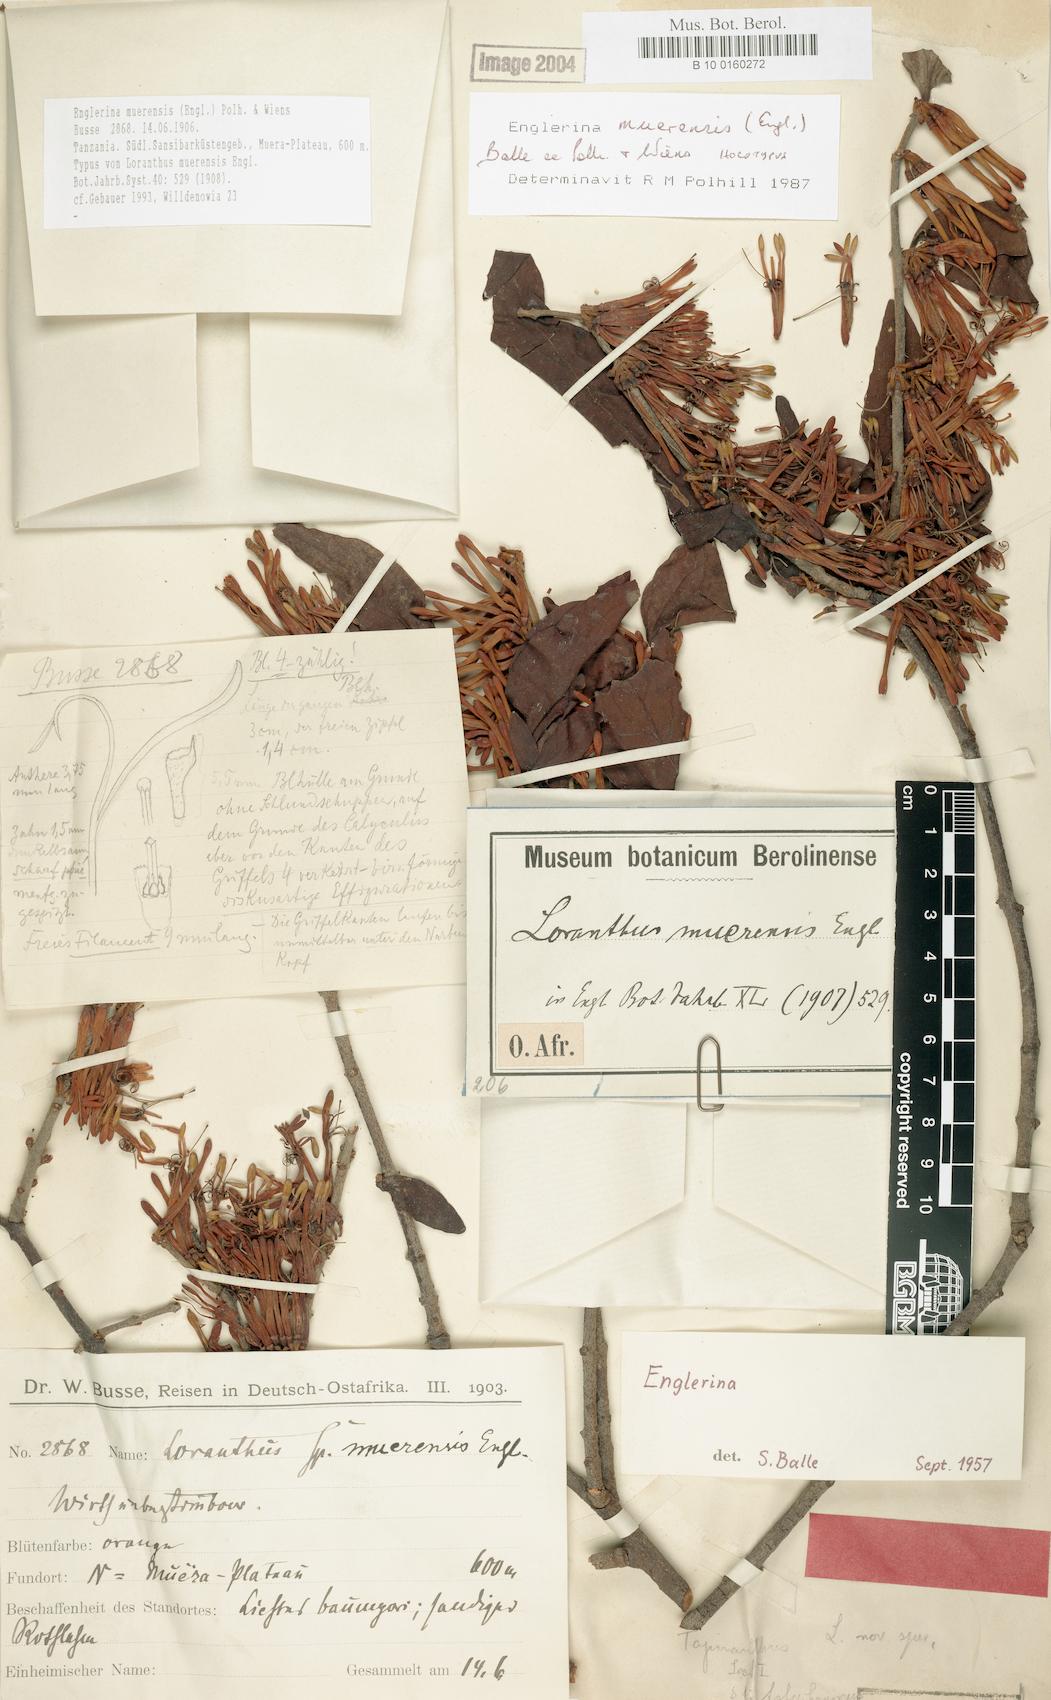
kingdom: Plantae
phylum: Tracheophyta
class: Magnoliopsida
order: Santalales
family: Loranthaceae
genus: Englerina
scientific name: Englerina muerensis
